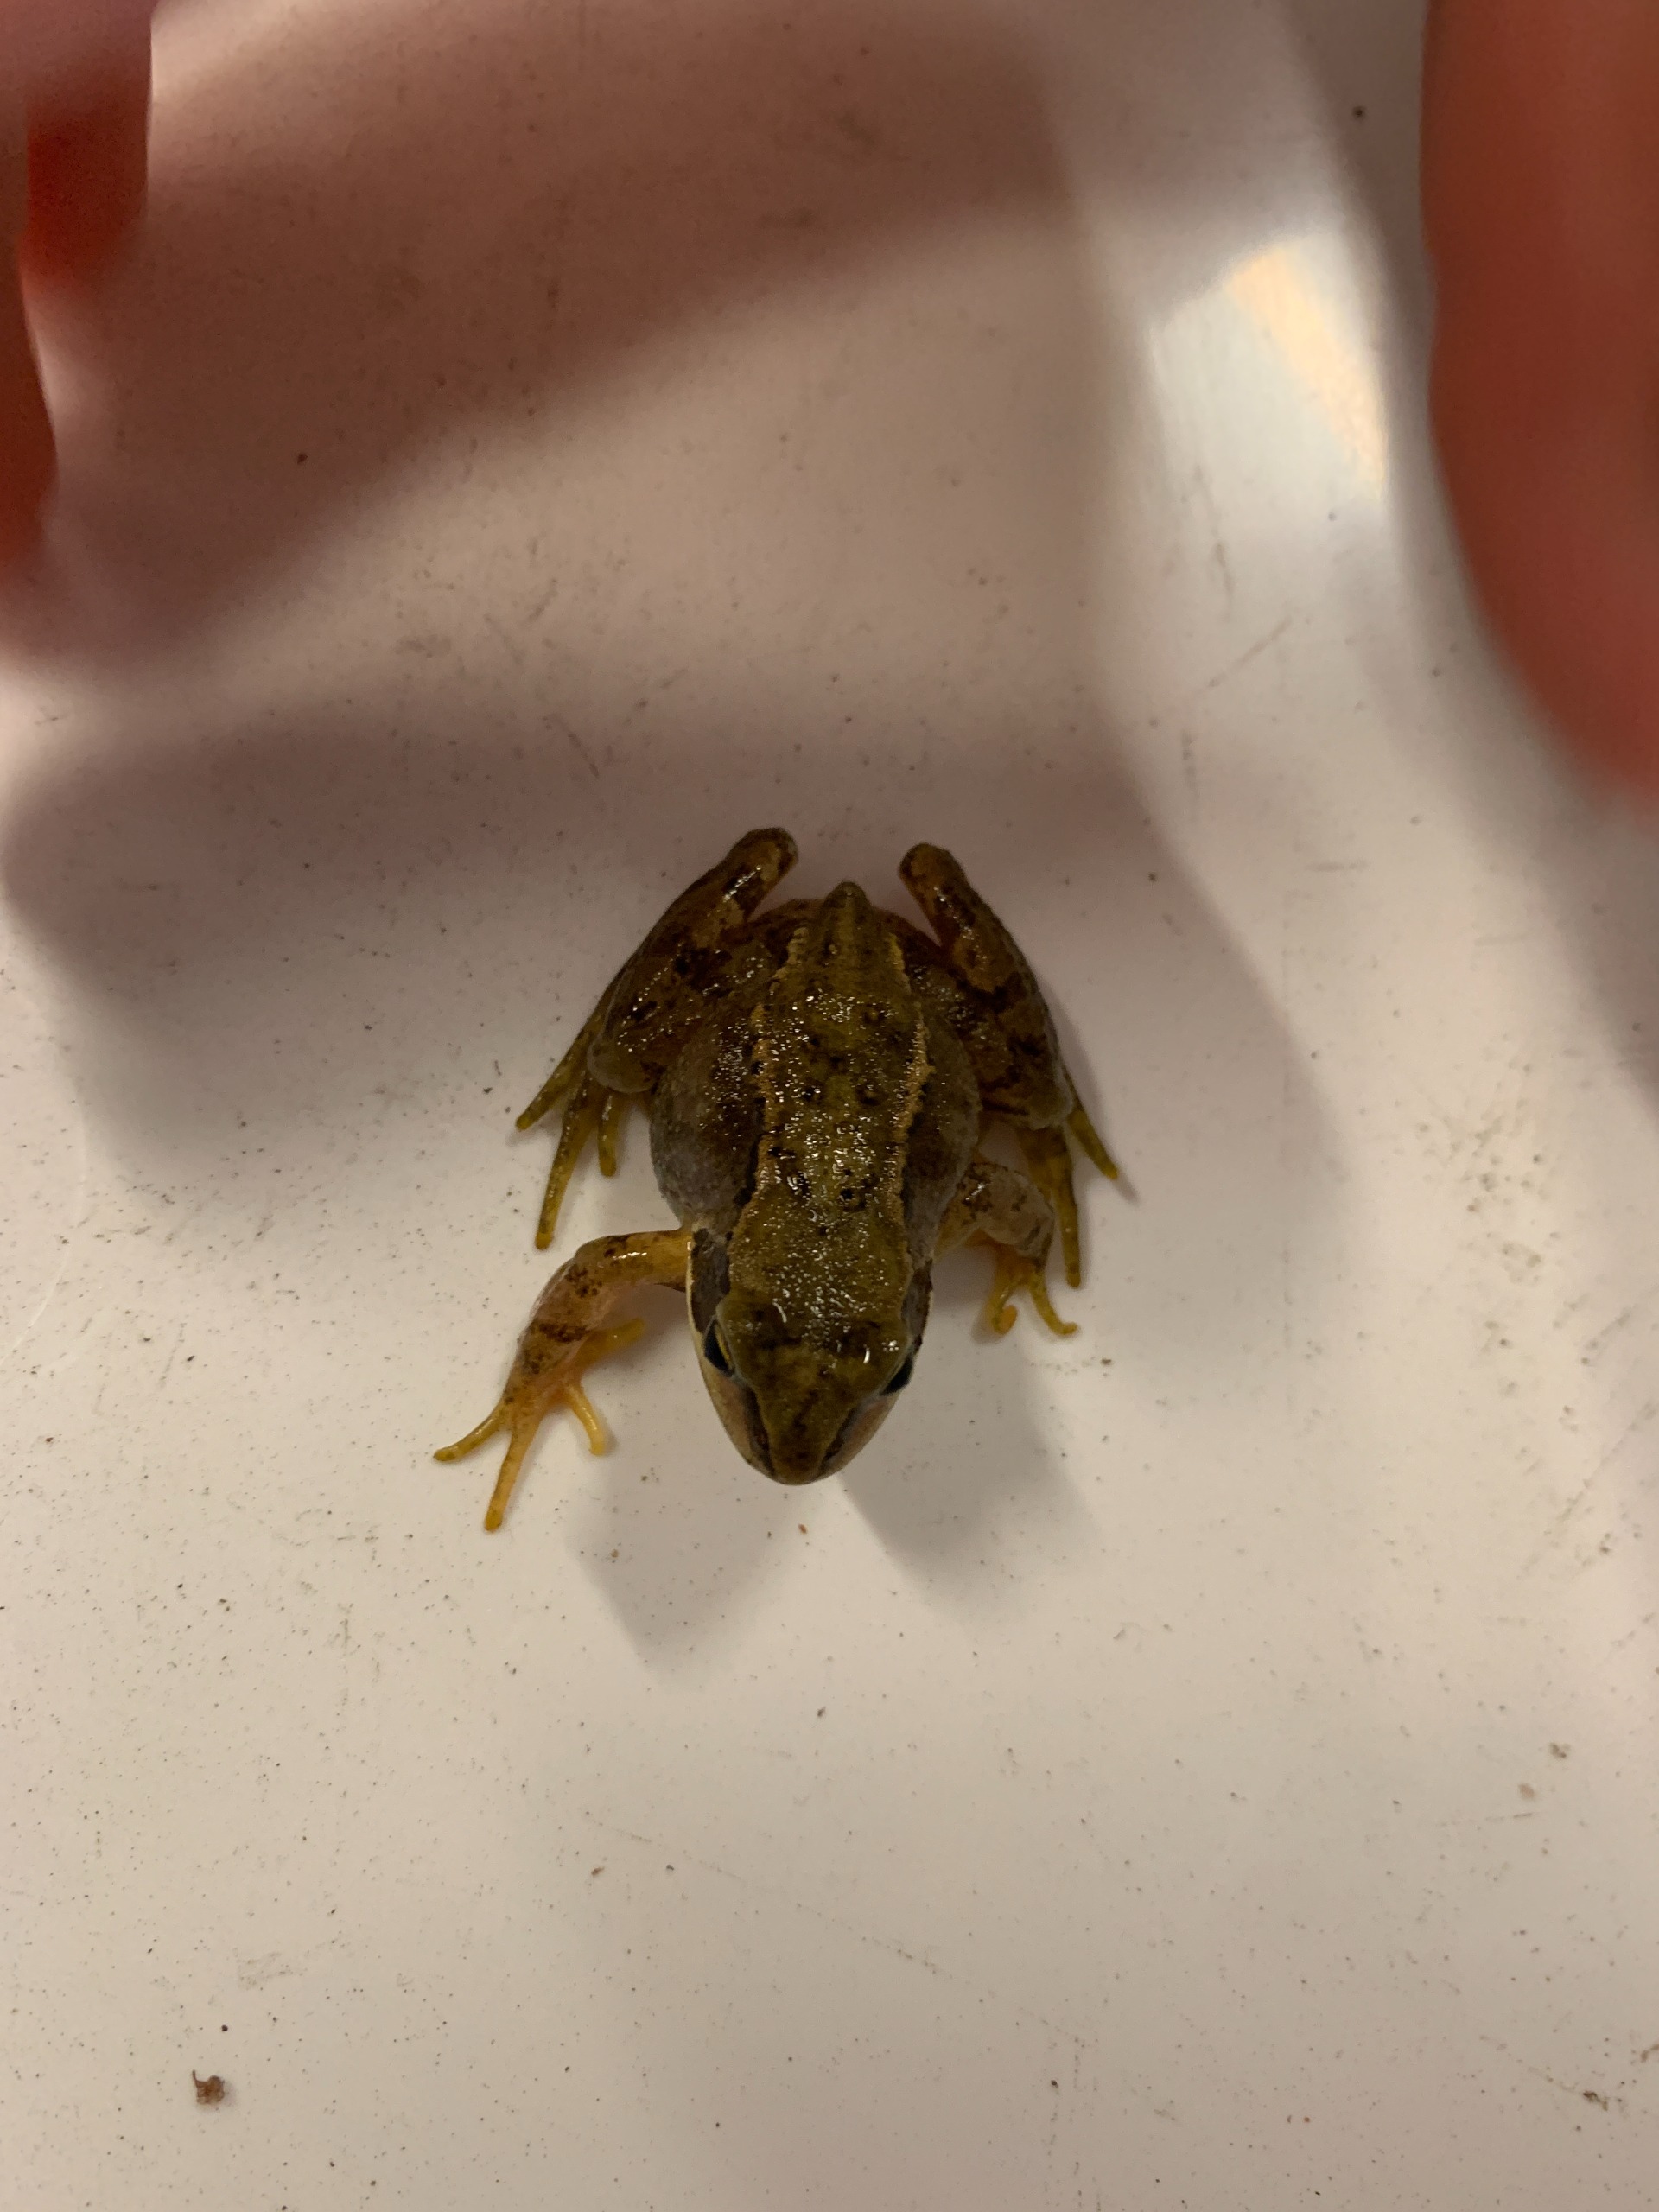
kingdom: Animalia
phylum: Chordata
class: Amphibia
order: Anura
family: Ranidae
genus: Rana
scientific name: Rana temporaria
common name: Butsnudet frø
